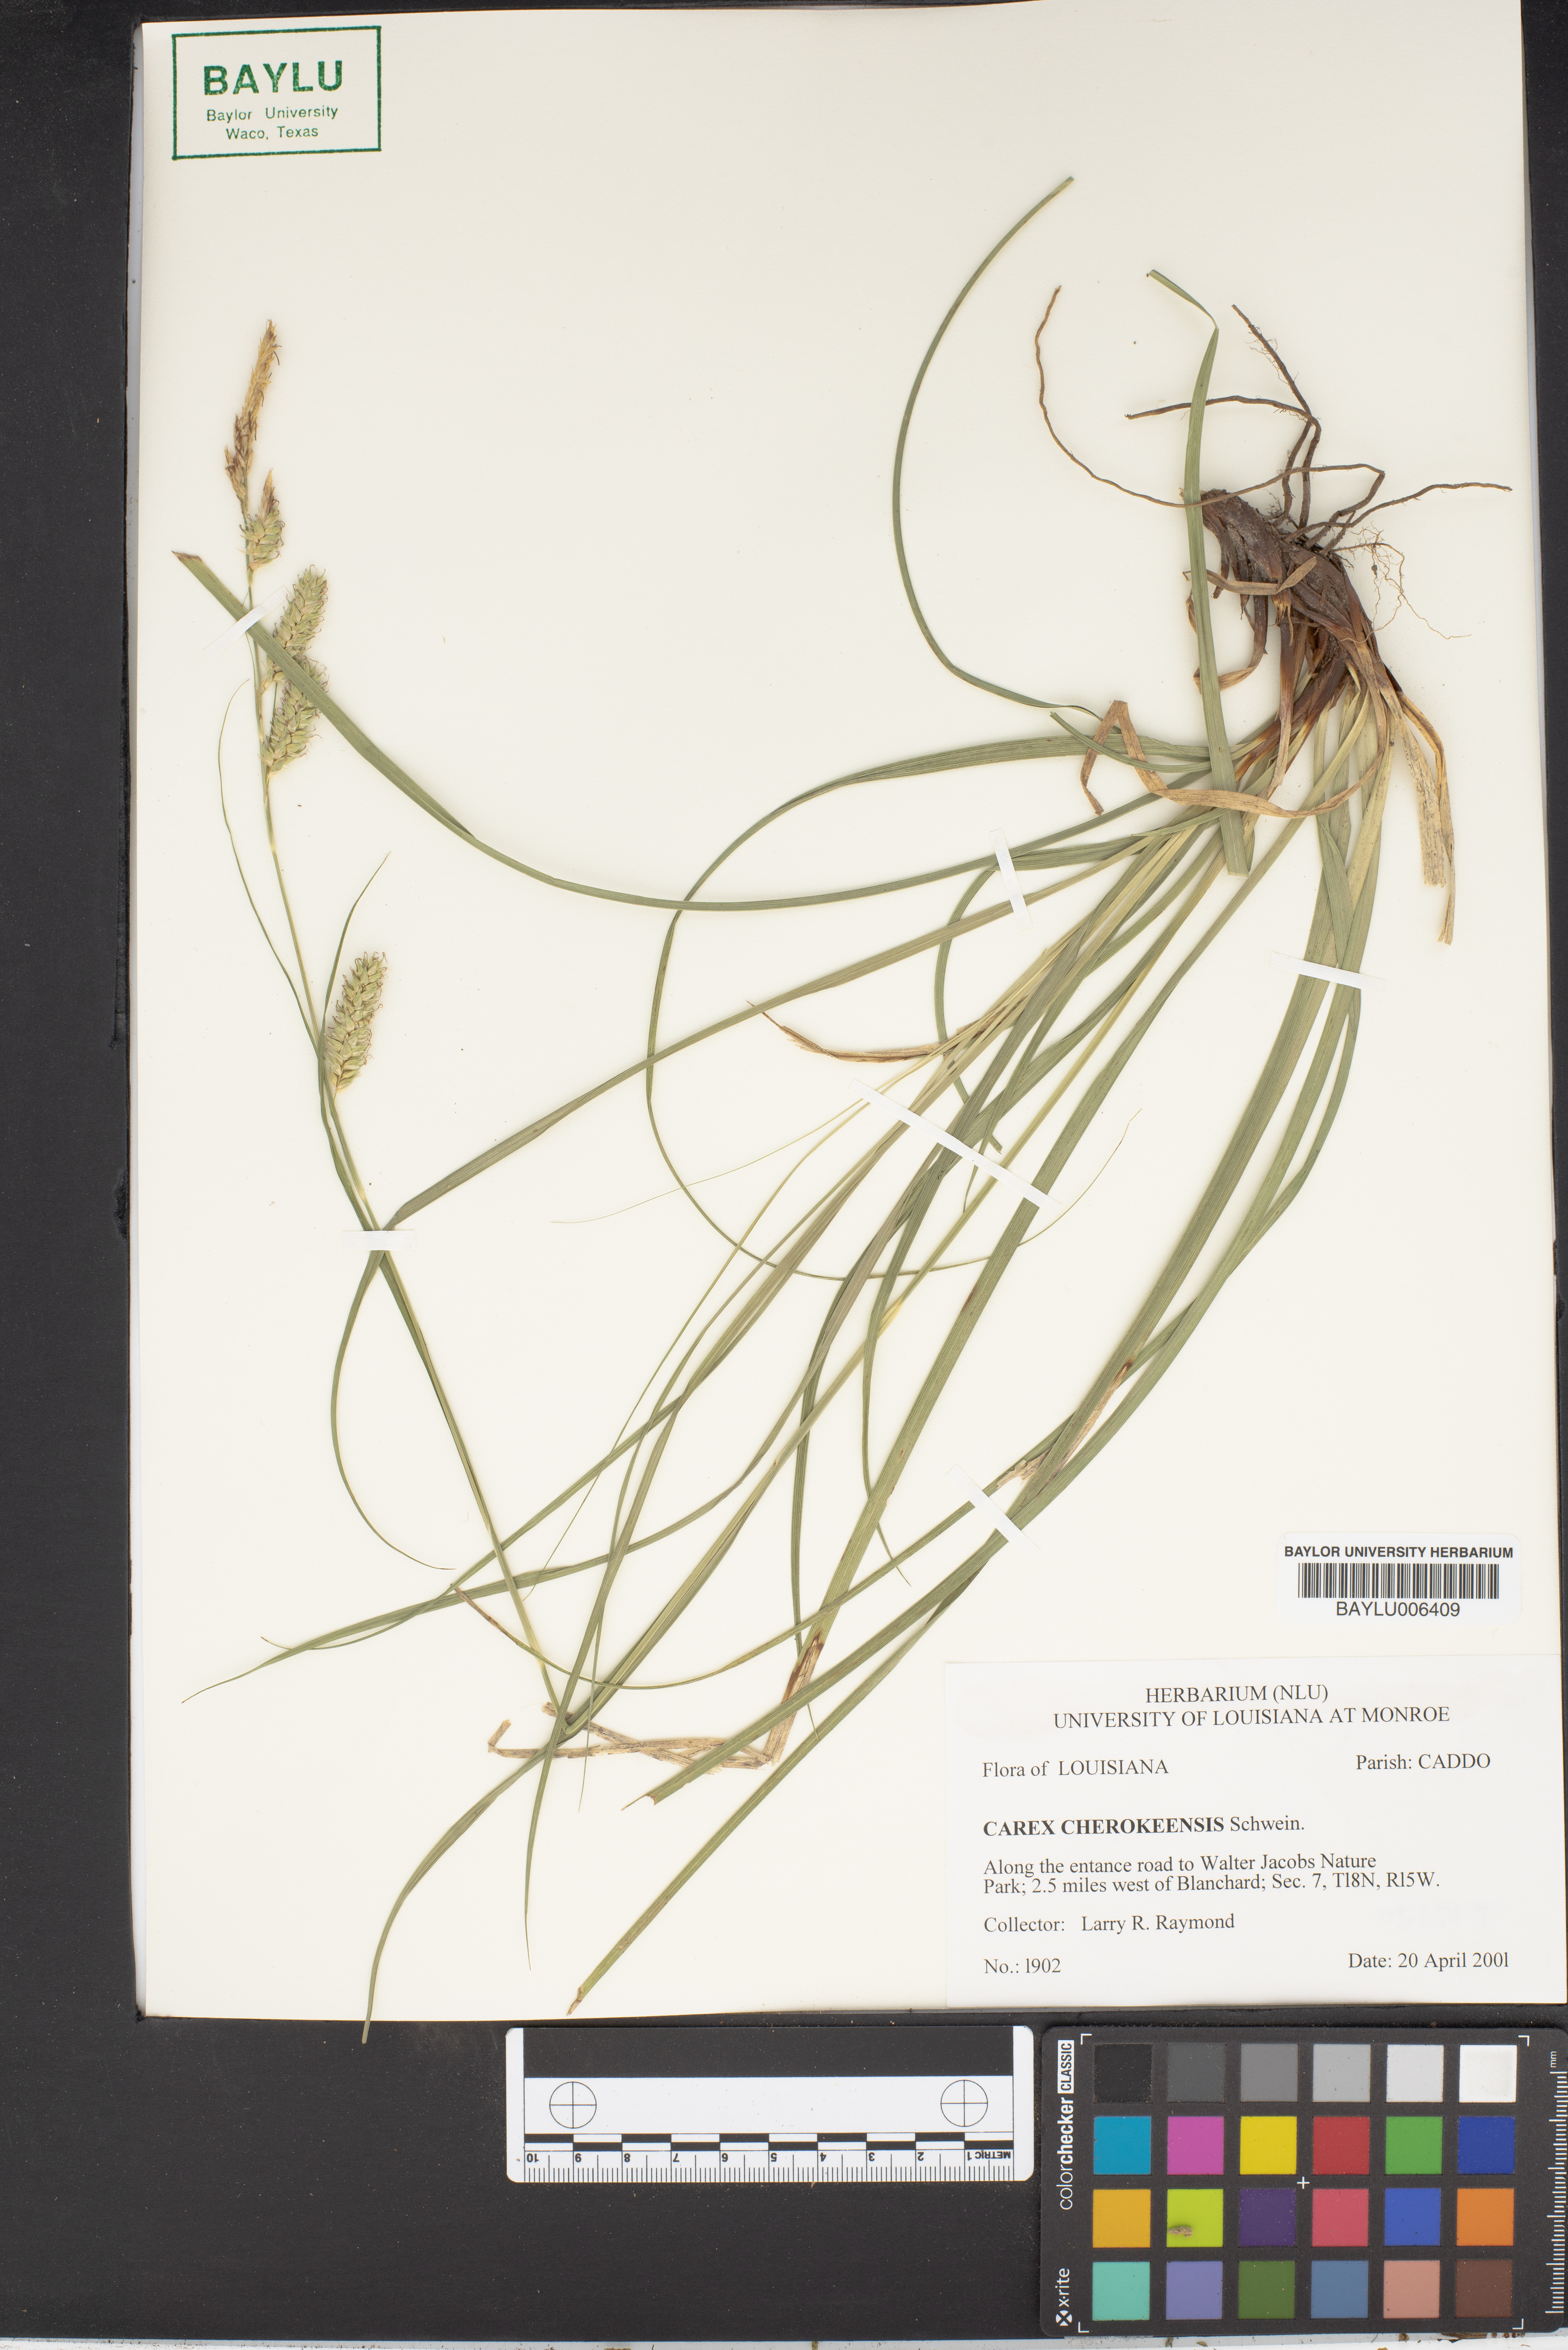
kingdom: Plantae
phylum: Tracheophyta
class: Liliopsida
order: Poales
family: Cyperaceae
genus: Carex
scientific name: Carex cherokeensis
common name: Cherokee sedge
